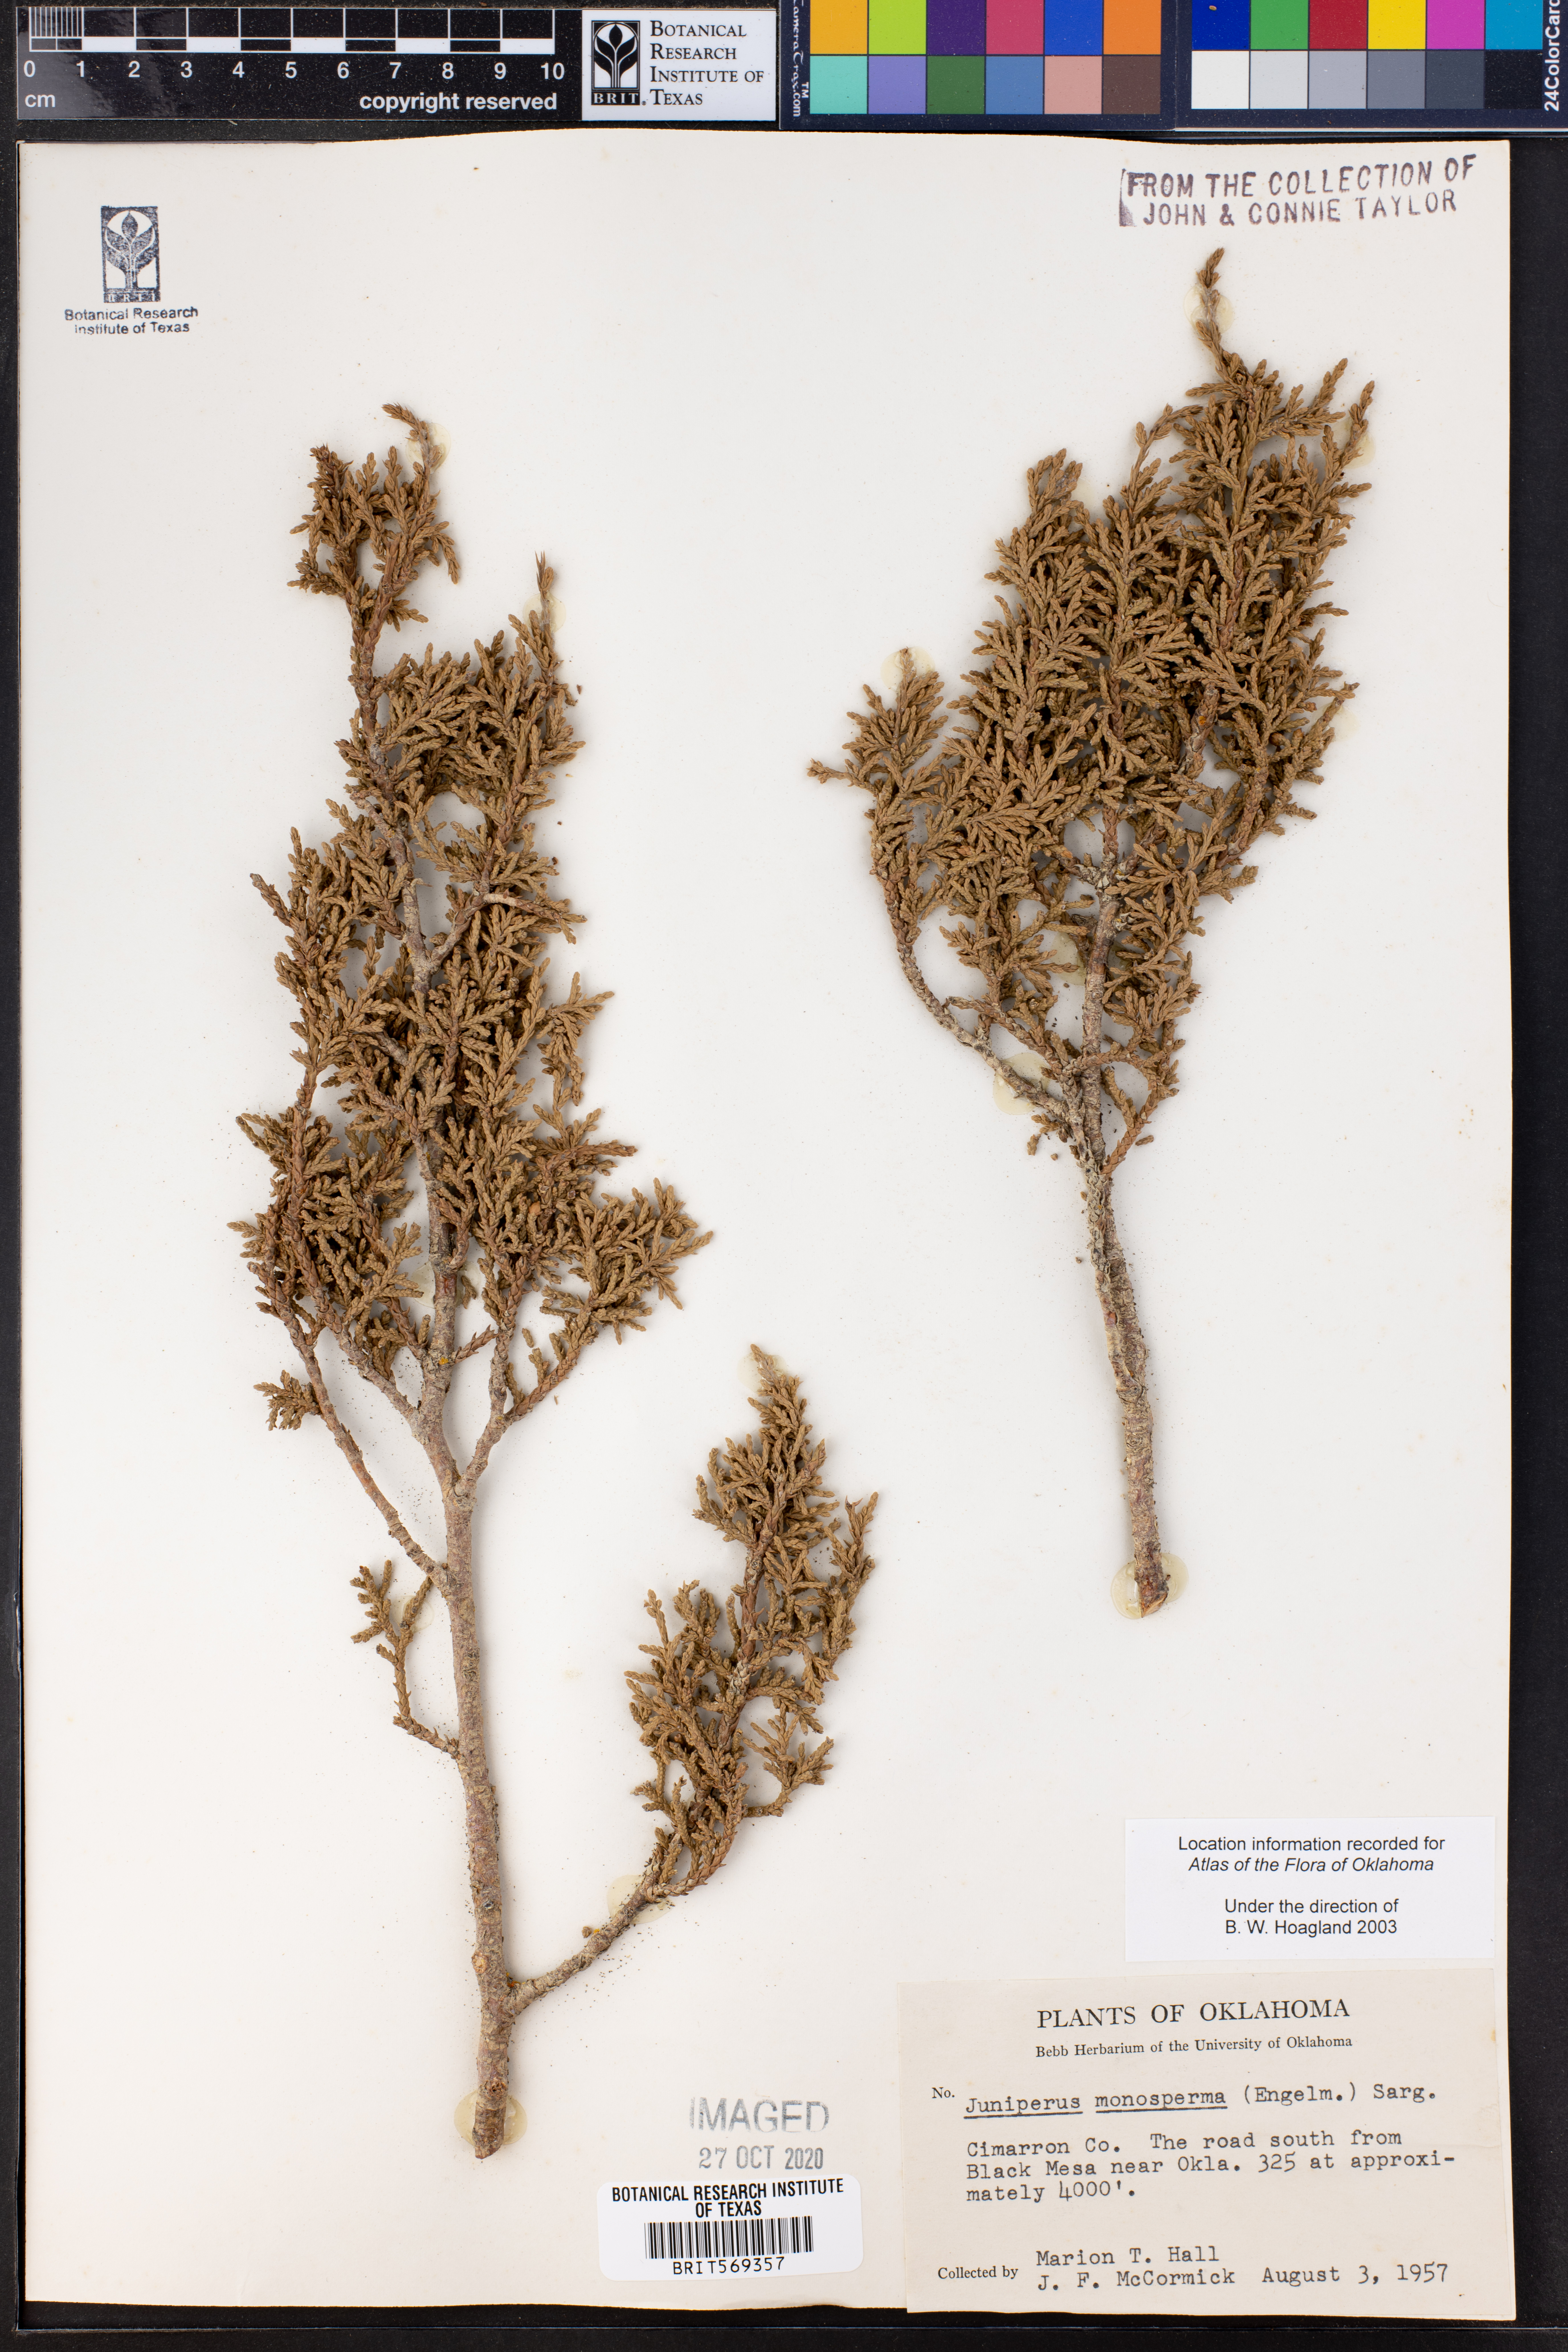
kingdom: Plantae
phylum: Tracheophyta
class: Pinopsida
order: Pinales
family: Cupressaceae
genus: Juniperus
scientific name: Juniperus monosperma
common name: One-seed juniper
